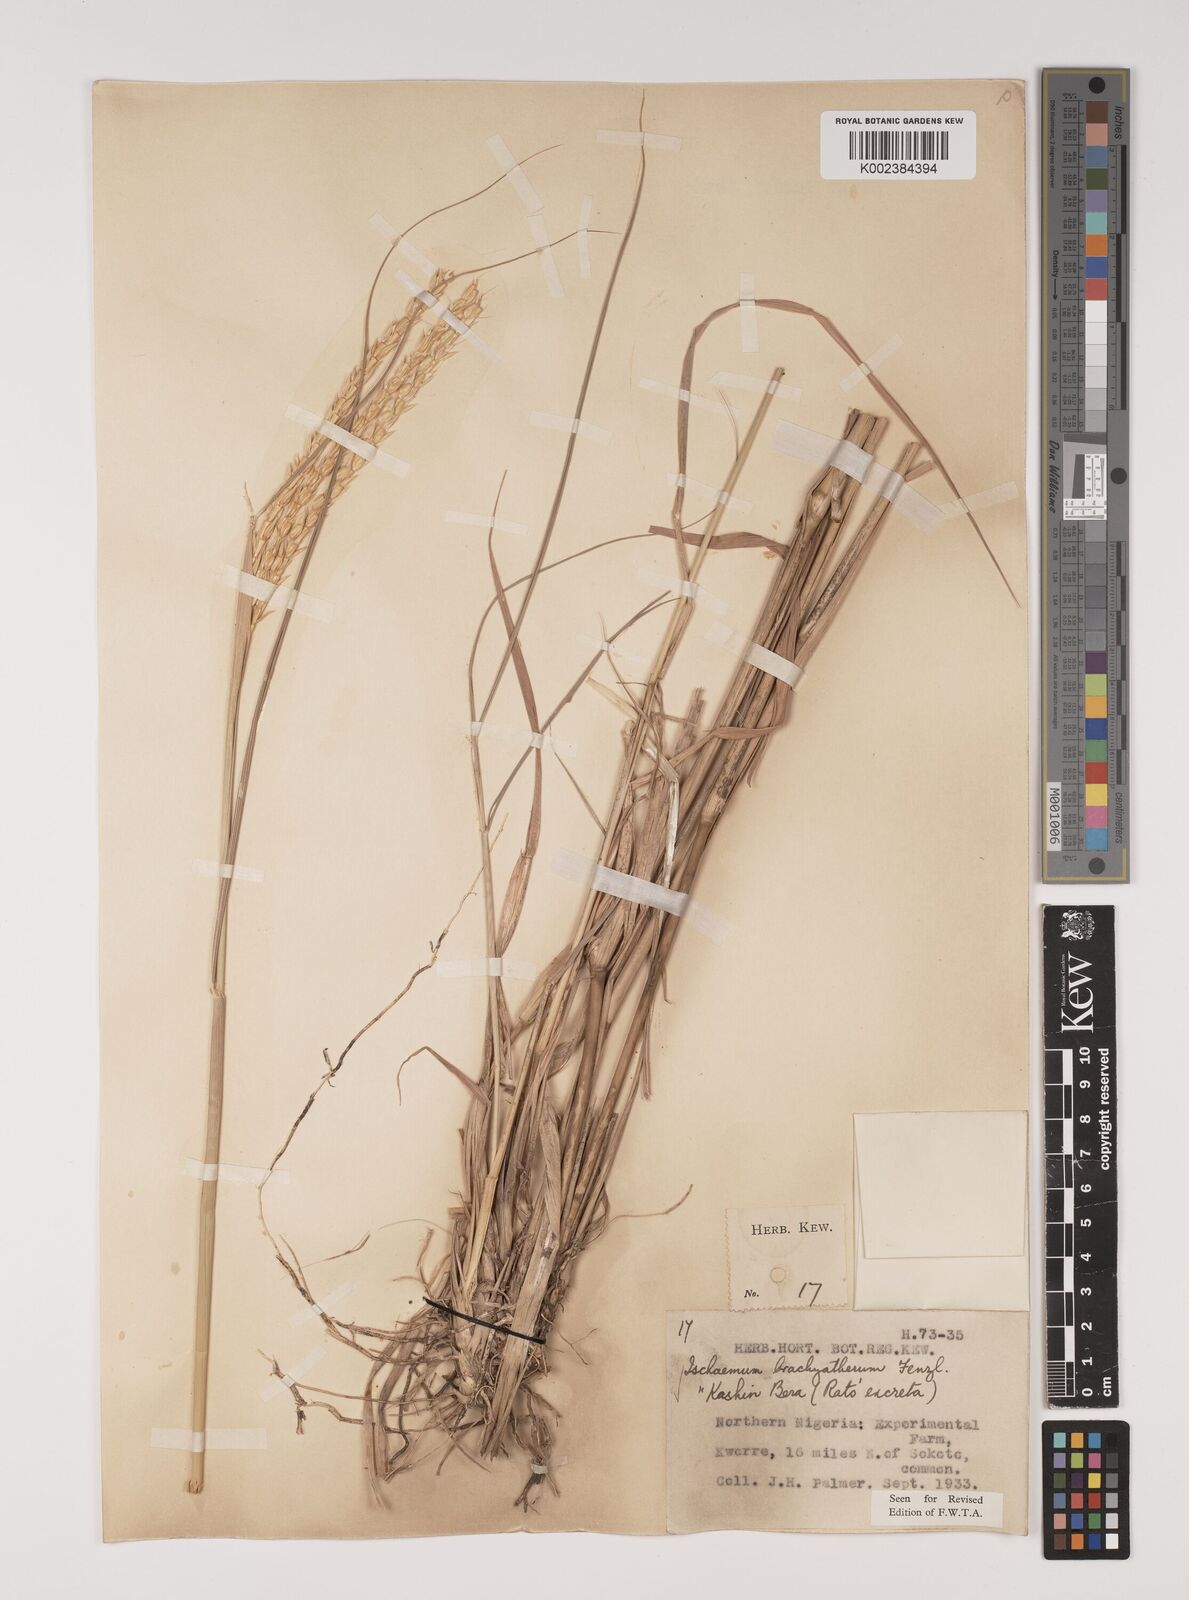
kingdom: Plantae
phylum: Tracheophyta
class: Liliopsida
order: Poales
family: Poaceae
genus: Ischaemum
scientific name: Ischaemum afrum
